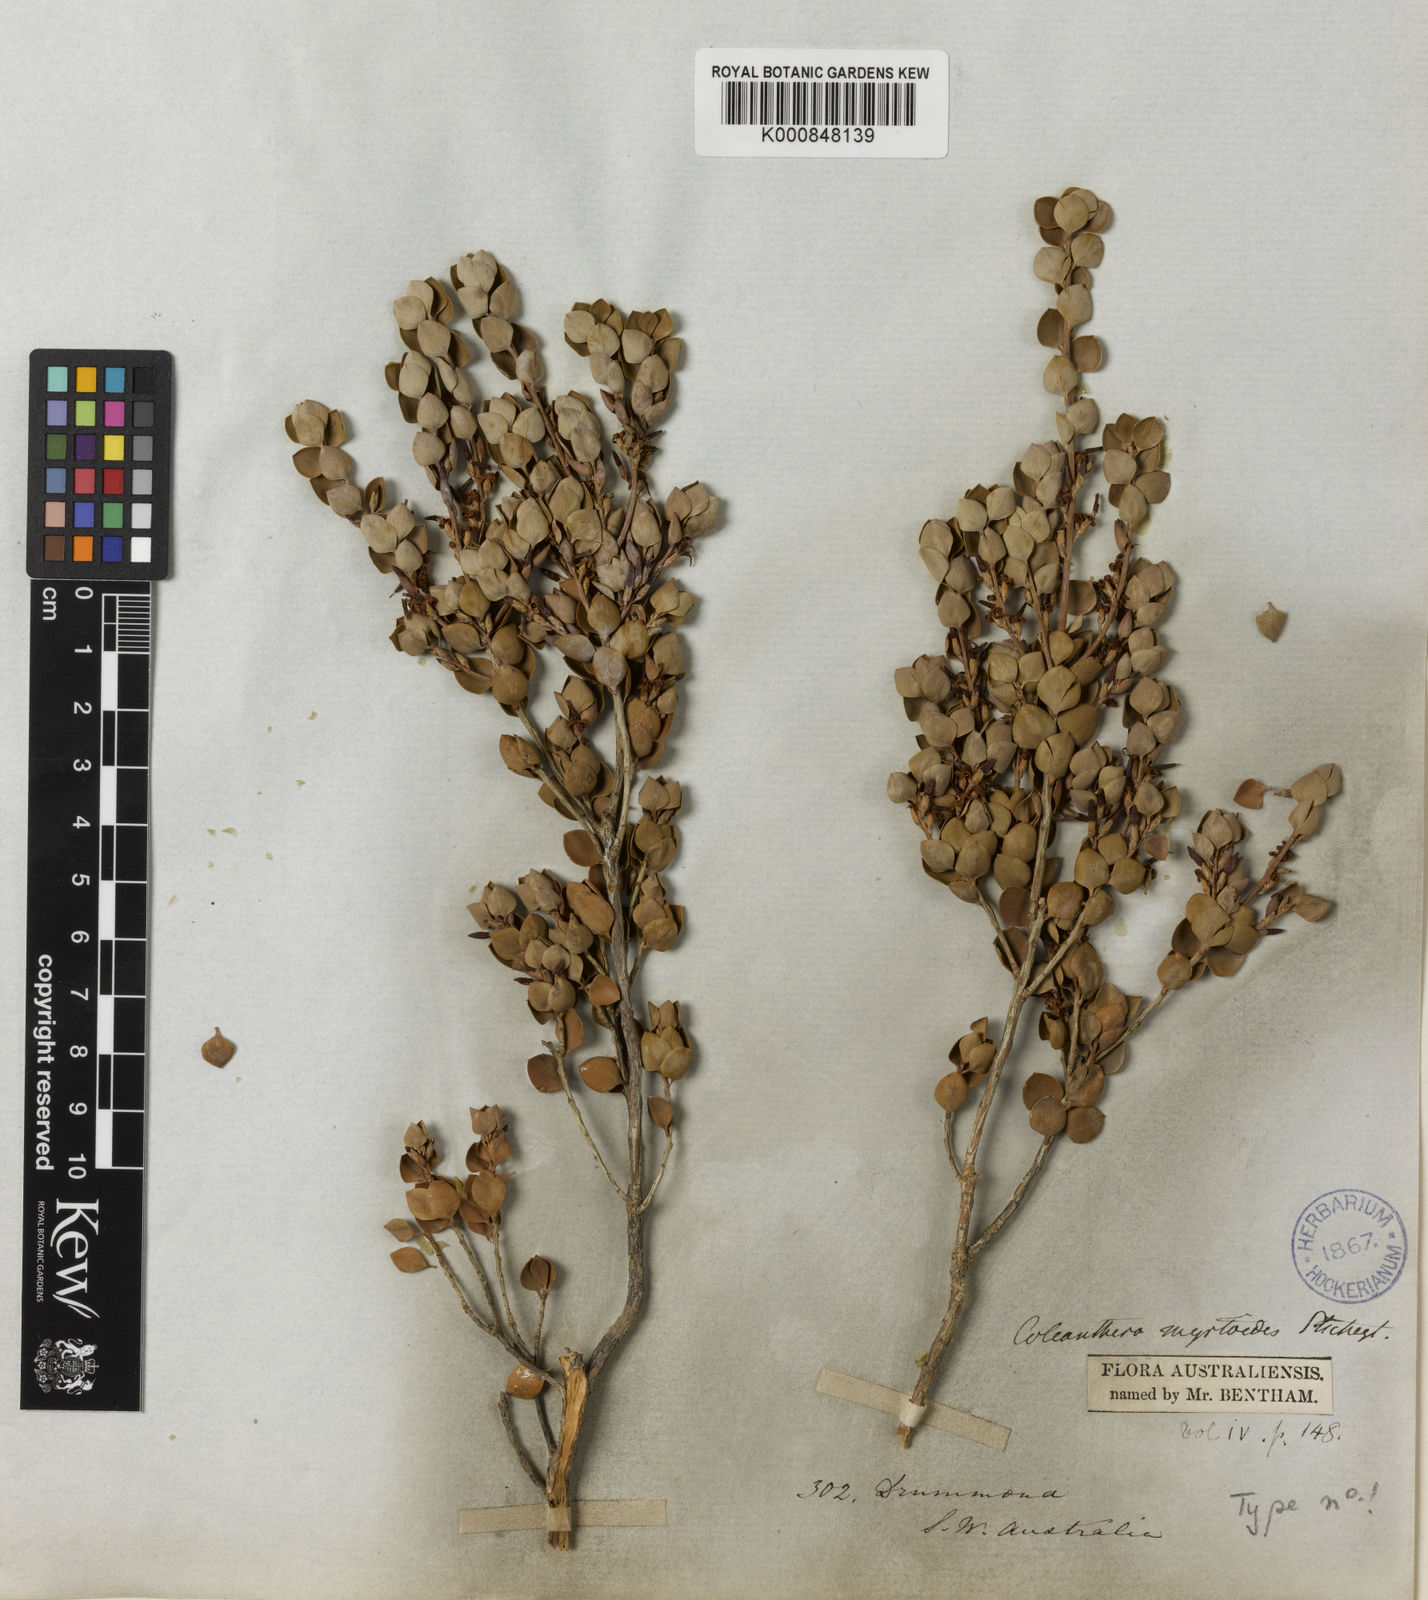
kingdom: Plantae
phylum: Tracheophyta
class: Magnoliopsida
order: Ericales
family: Ericaceae
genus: Styphelia
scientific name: Styphelia coelophylla
